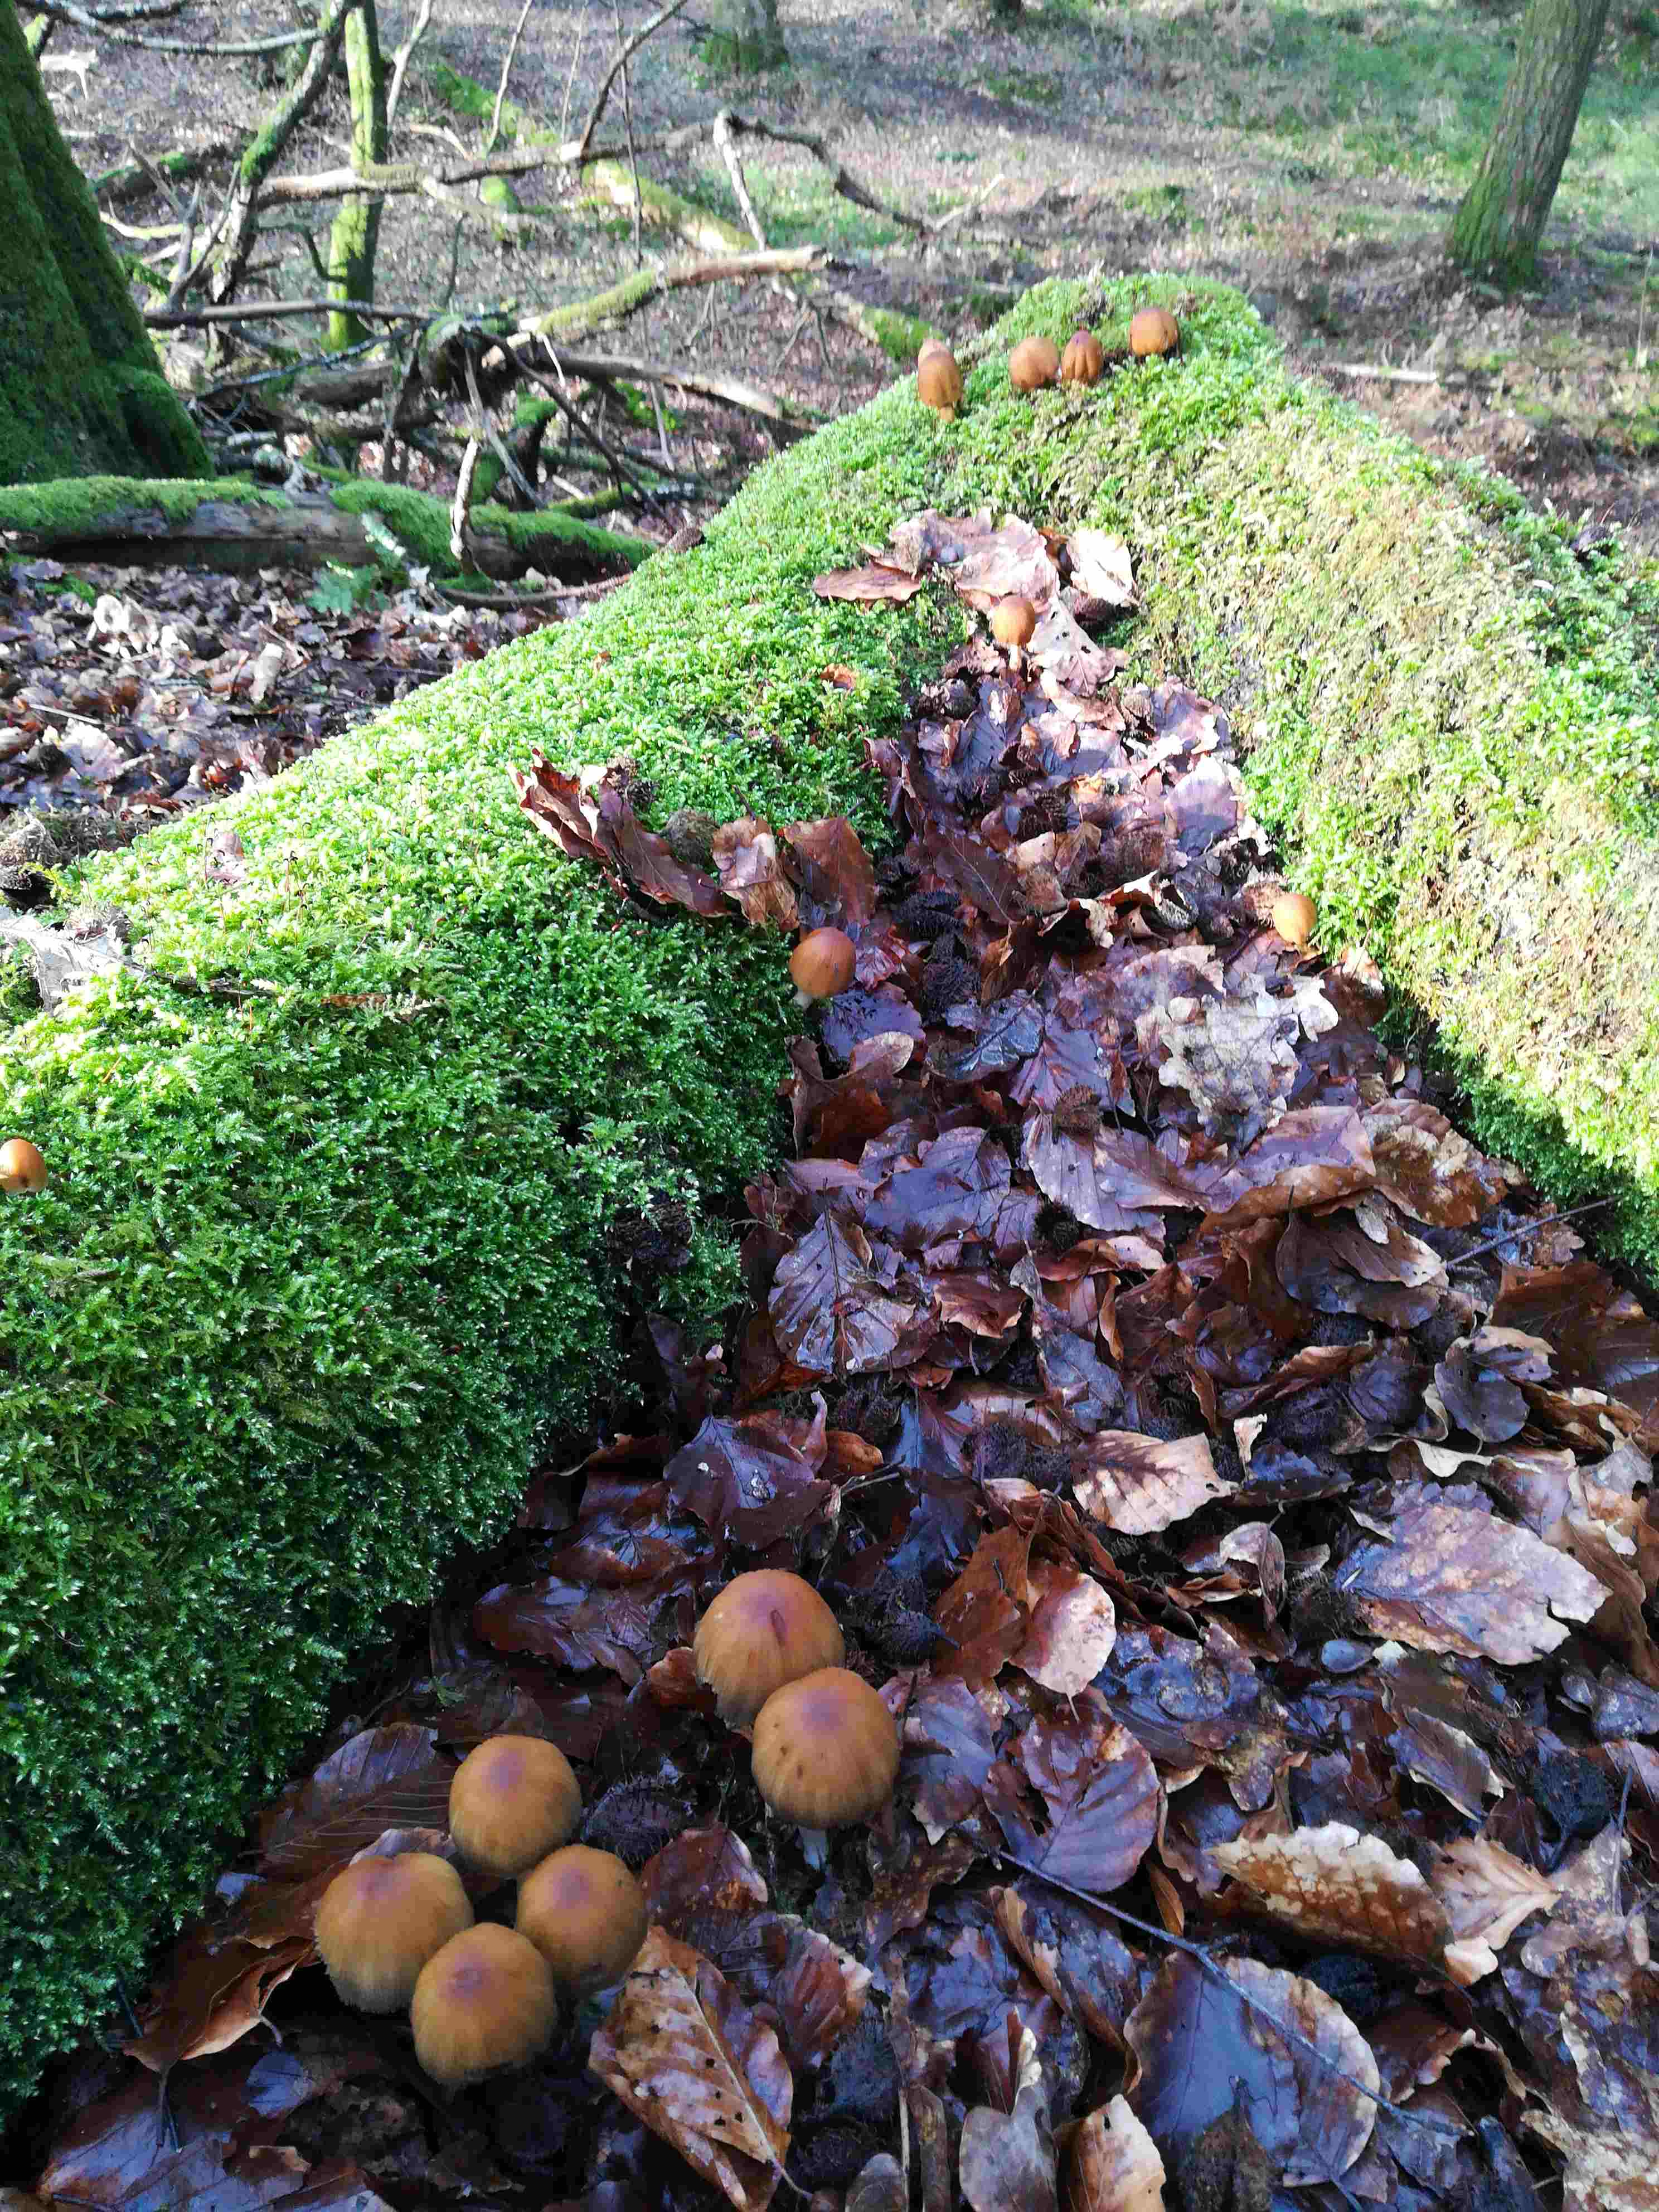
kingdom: Fungi
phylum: Basidiomycota
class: Agaricomycetes
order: Agaricales
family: Psathyrellaceae
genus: Coprinellus
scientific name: Coprinellus
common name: blækhat
